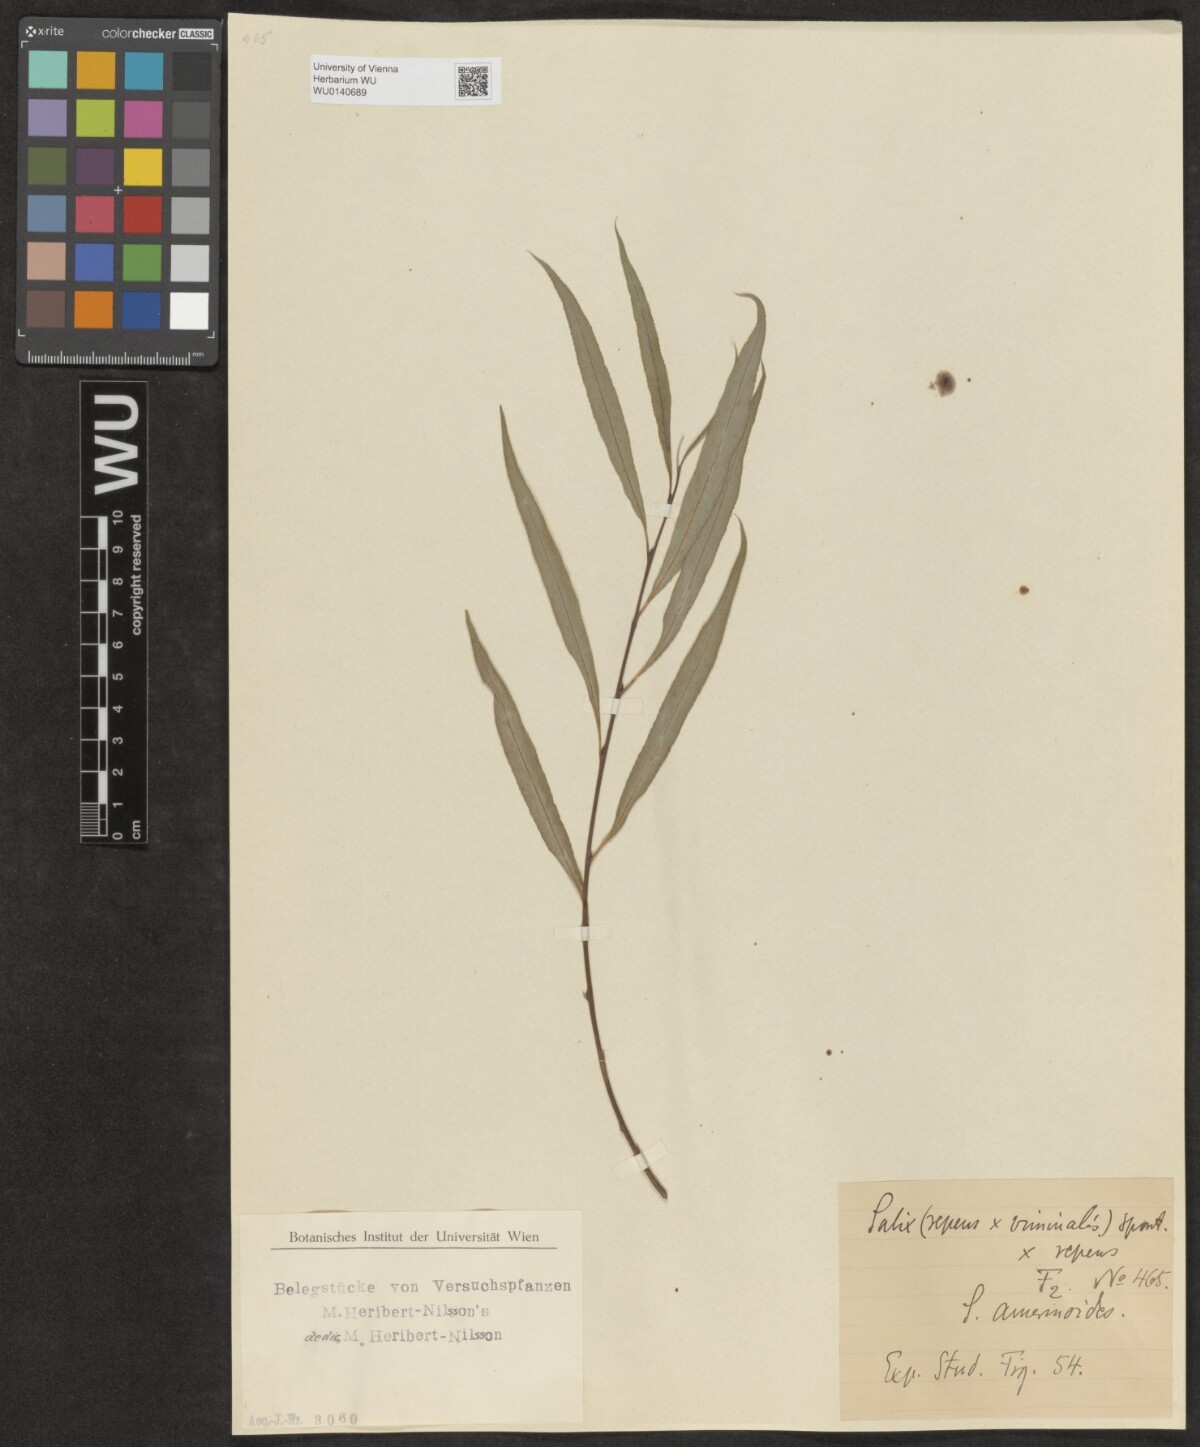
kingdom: Plantae
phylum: Tracheophyta
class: Magnoliopsida
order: Malpighiales
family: Salicaceae
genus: Salix
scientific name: Salix
